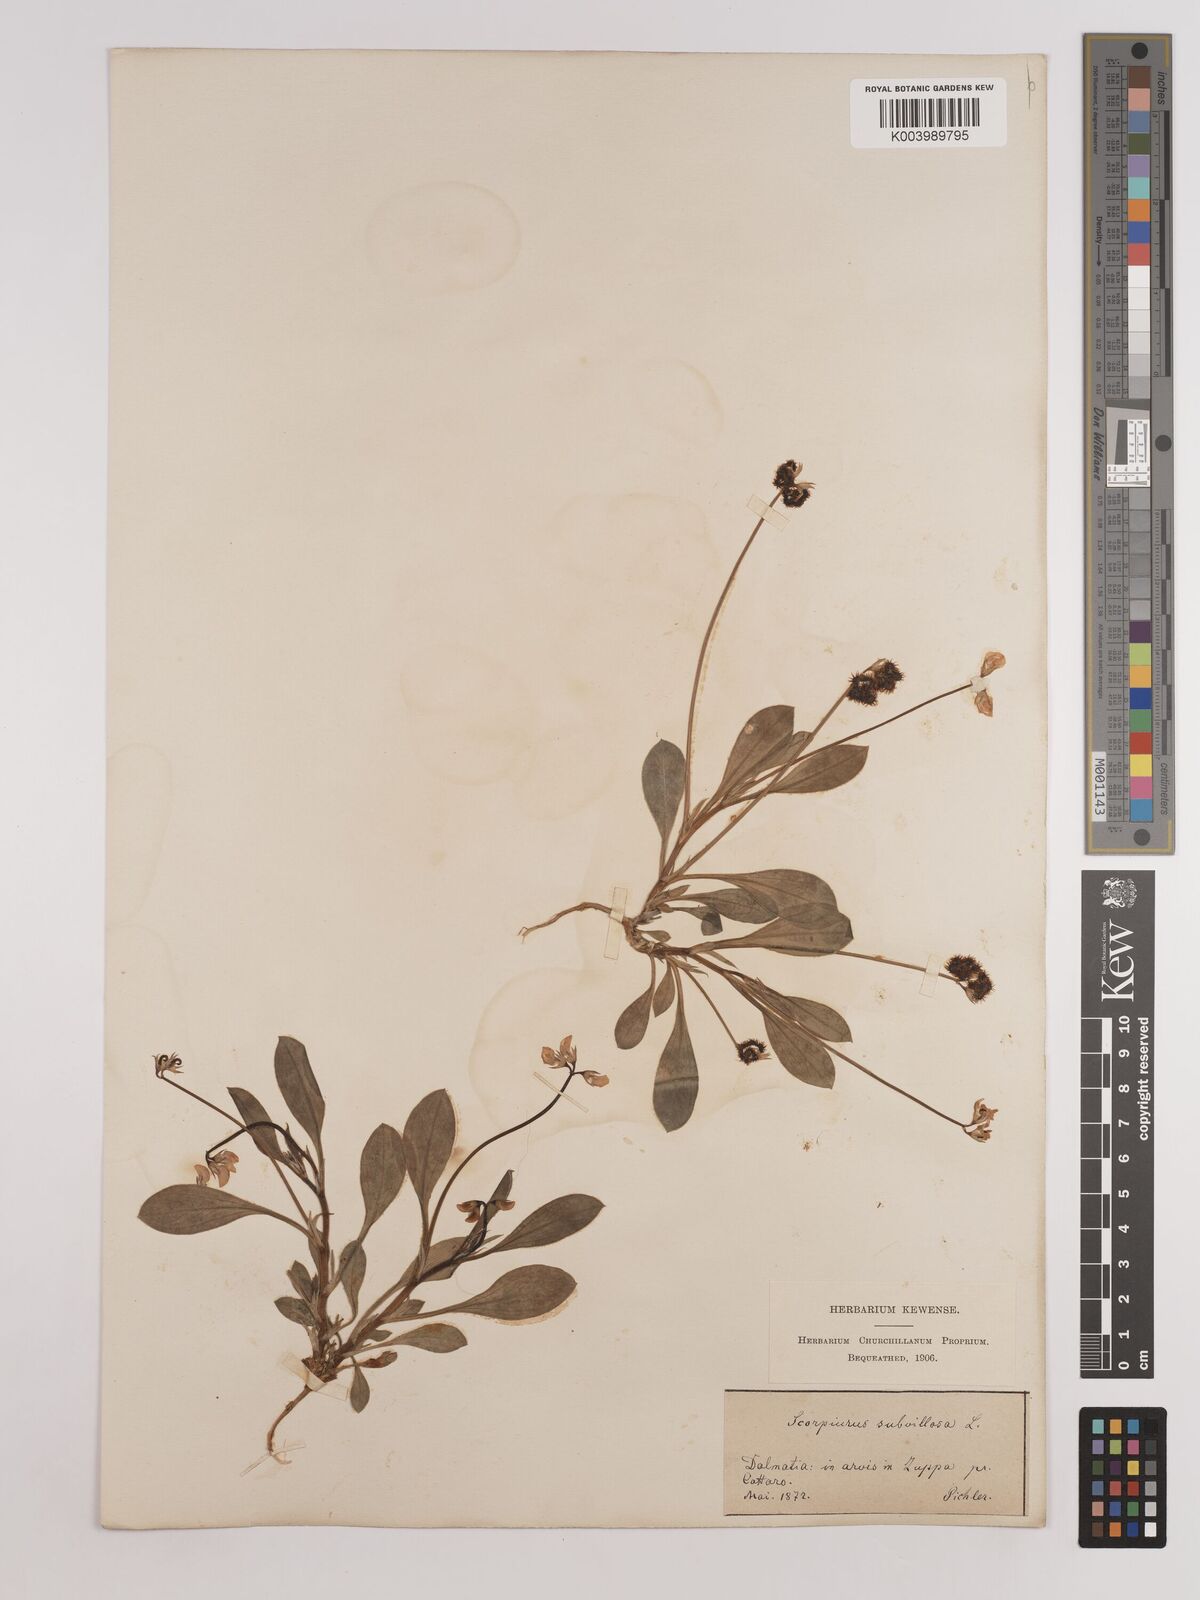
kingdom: Plantae
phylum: Tracheophyta
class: Magnoliopsida
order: Fabales
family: Fabaceae
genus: Scorpiurus
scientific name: Scorpiurus muricatus
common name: Caterpillar-plant
